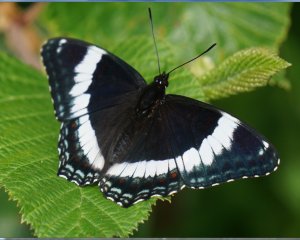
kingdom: Animalia
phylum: Arthropoda
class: Insecta
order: Lepidoptera
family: Nymphalidae
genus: Limenitis
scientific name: Limenitis arthemis
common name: Red-spotted Admiral
